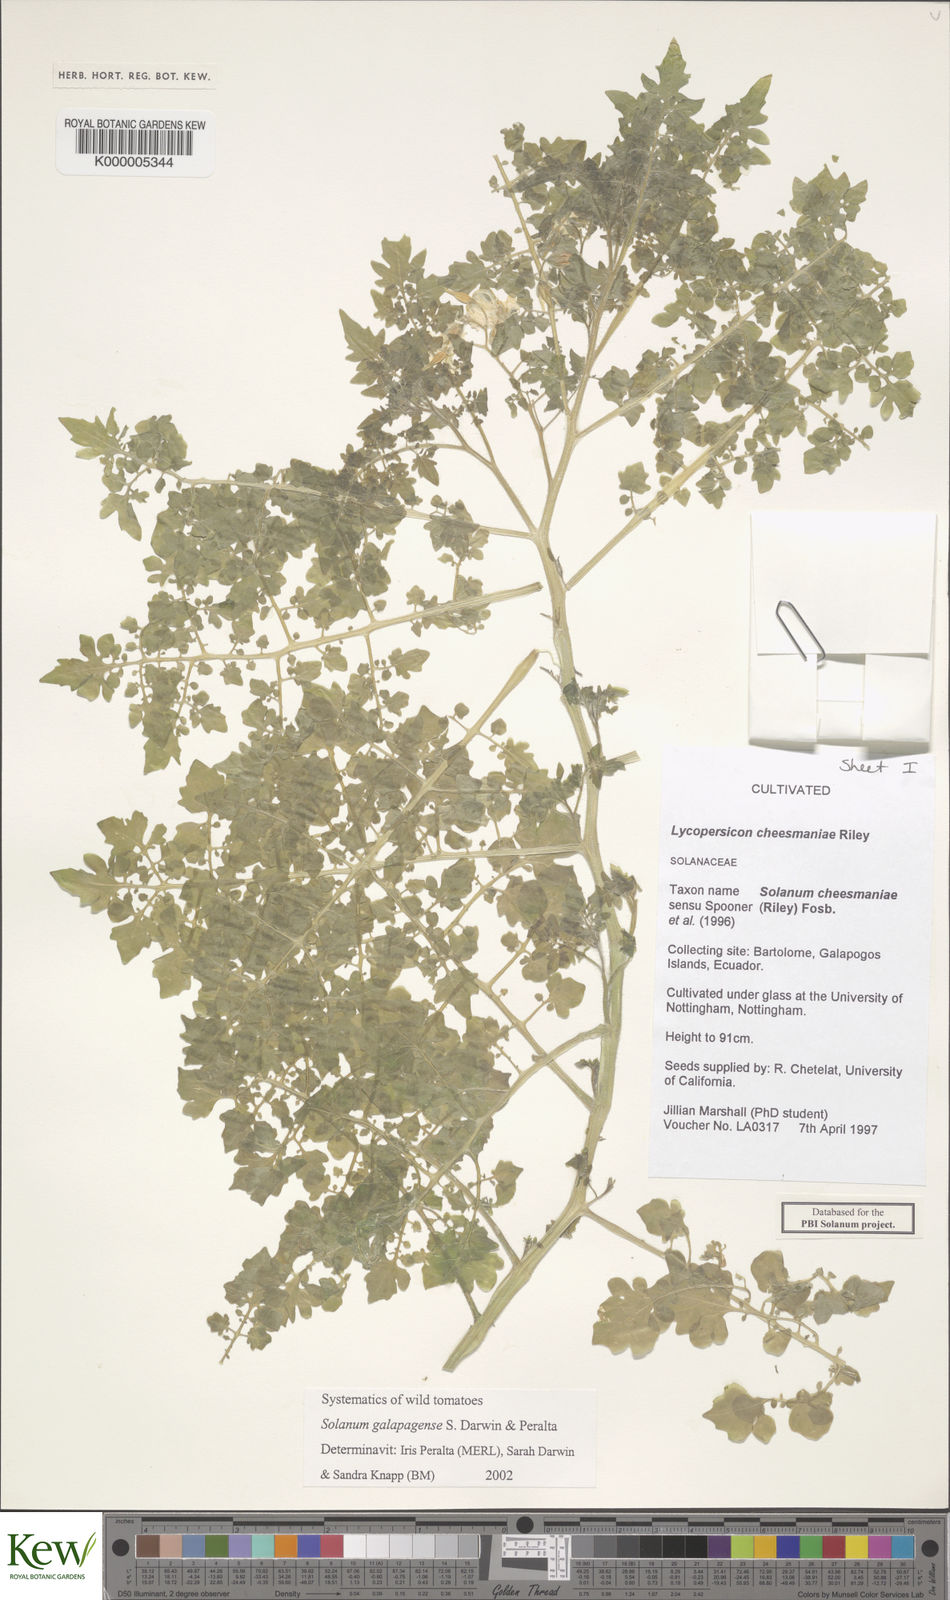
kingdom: Plantae
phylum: Tracheophyta
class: Magnoliopsida
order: Solanales
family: Solanaceae
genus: Solanum
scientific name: Solanum galapagense
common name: Galápagos tomato
